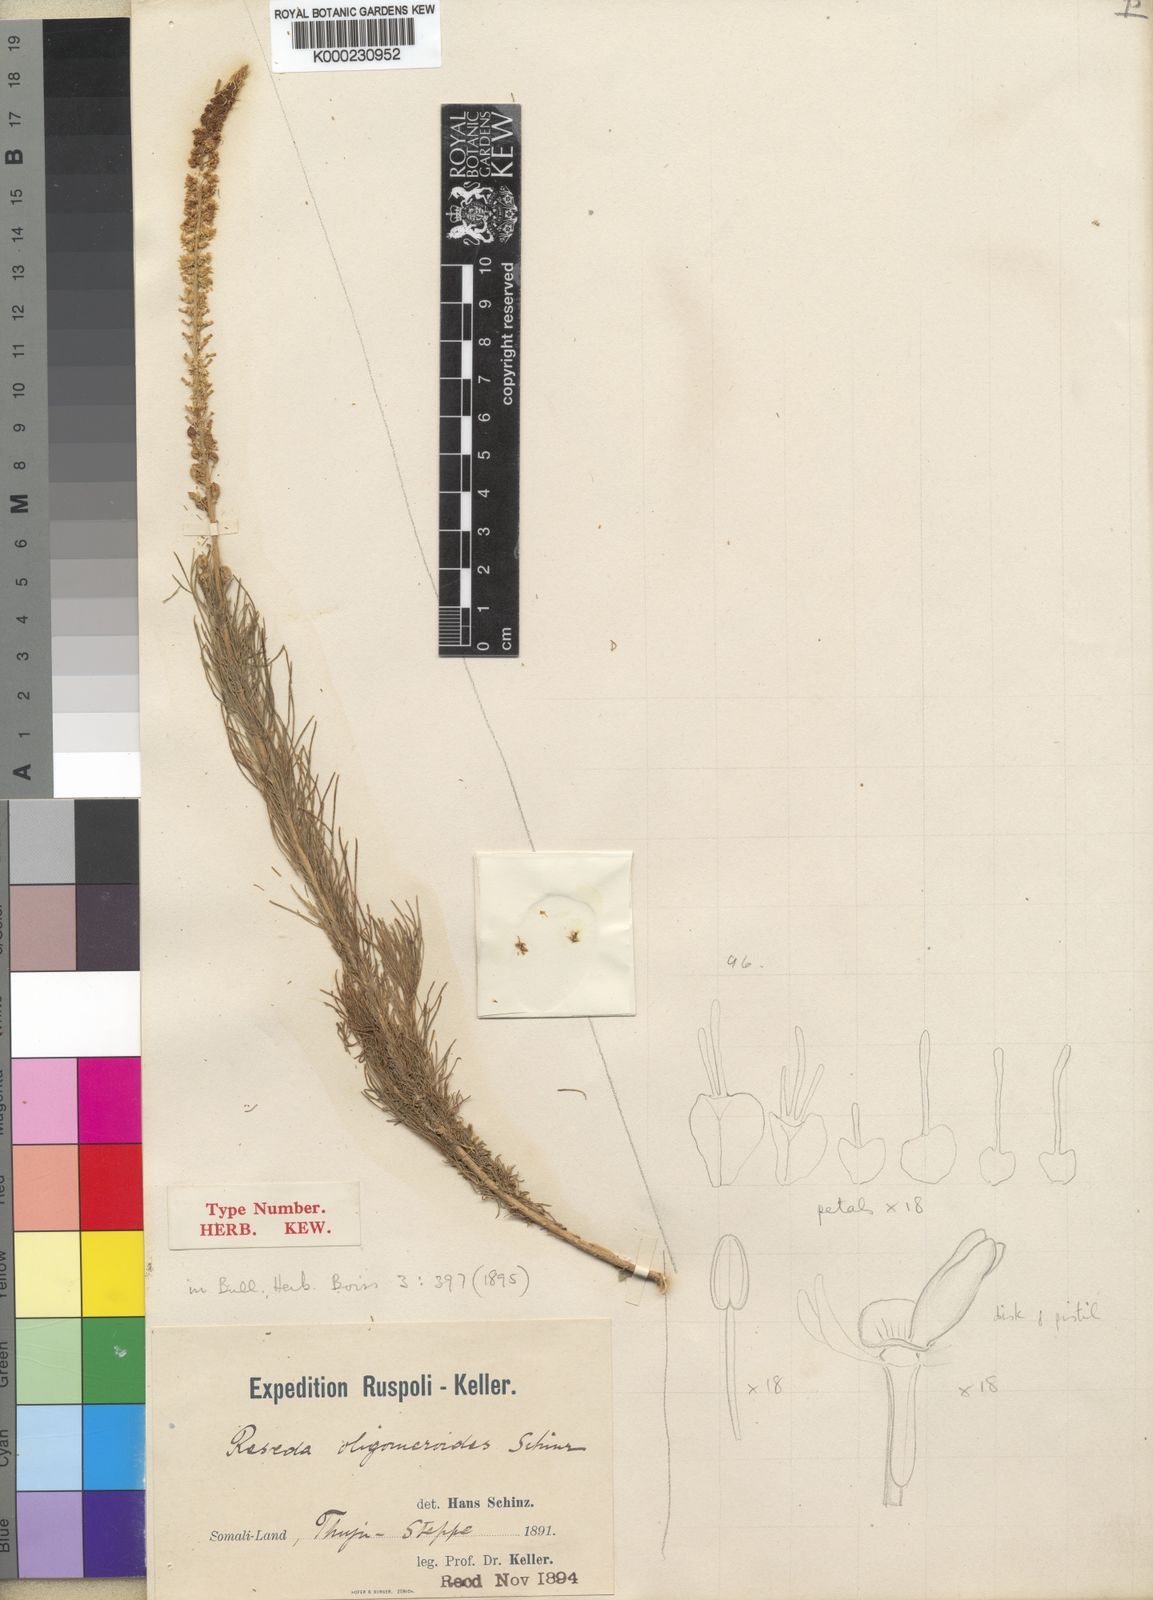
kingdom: Plantae
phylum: Tracheophyta
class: Magnoliopsida
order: Brassicales
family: Resedaceae
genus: Reseda
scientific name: Reseda amblycarpa
